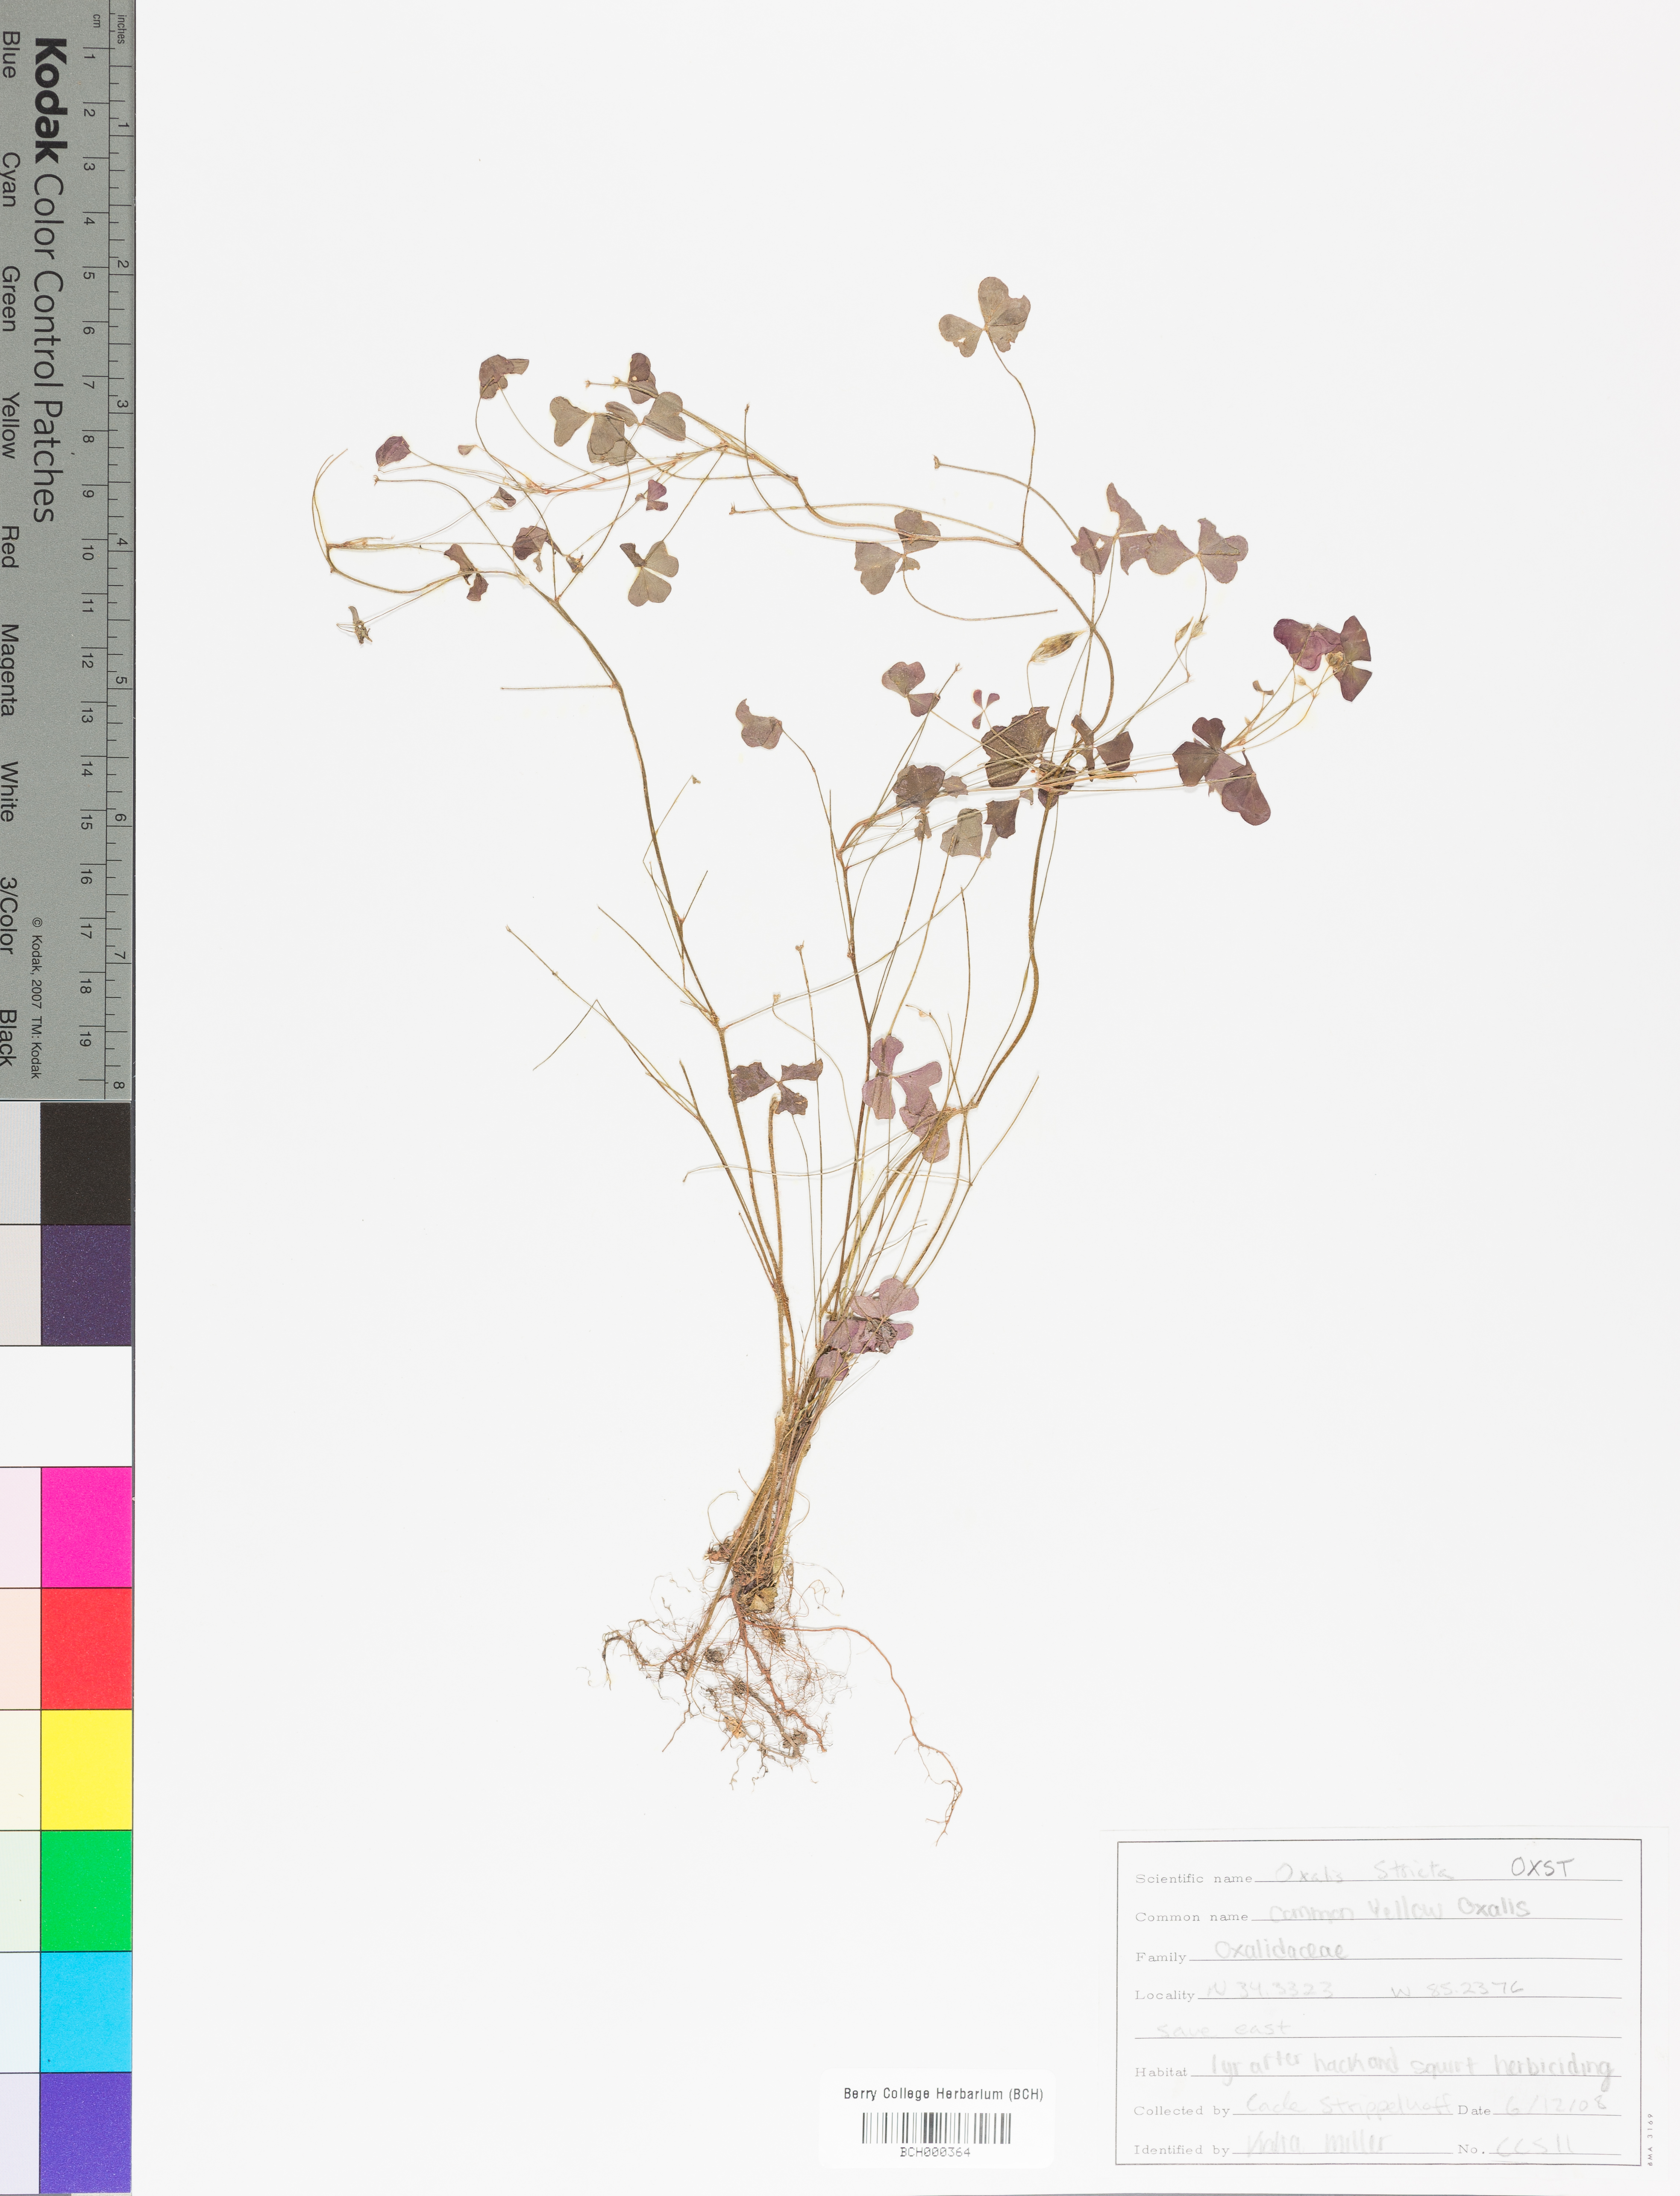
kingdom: Plantae
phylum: Tracheophyta
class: Magnoliopsida
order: Oxalidales
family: Oxalidaceae
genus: Oxalis
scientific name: Oxalis stricta
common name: Upright yellow-sorrel
